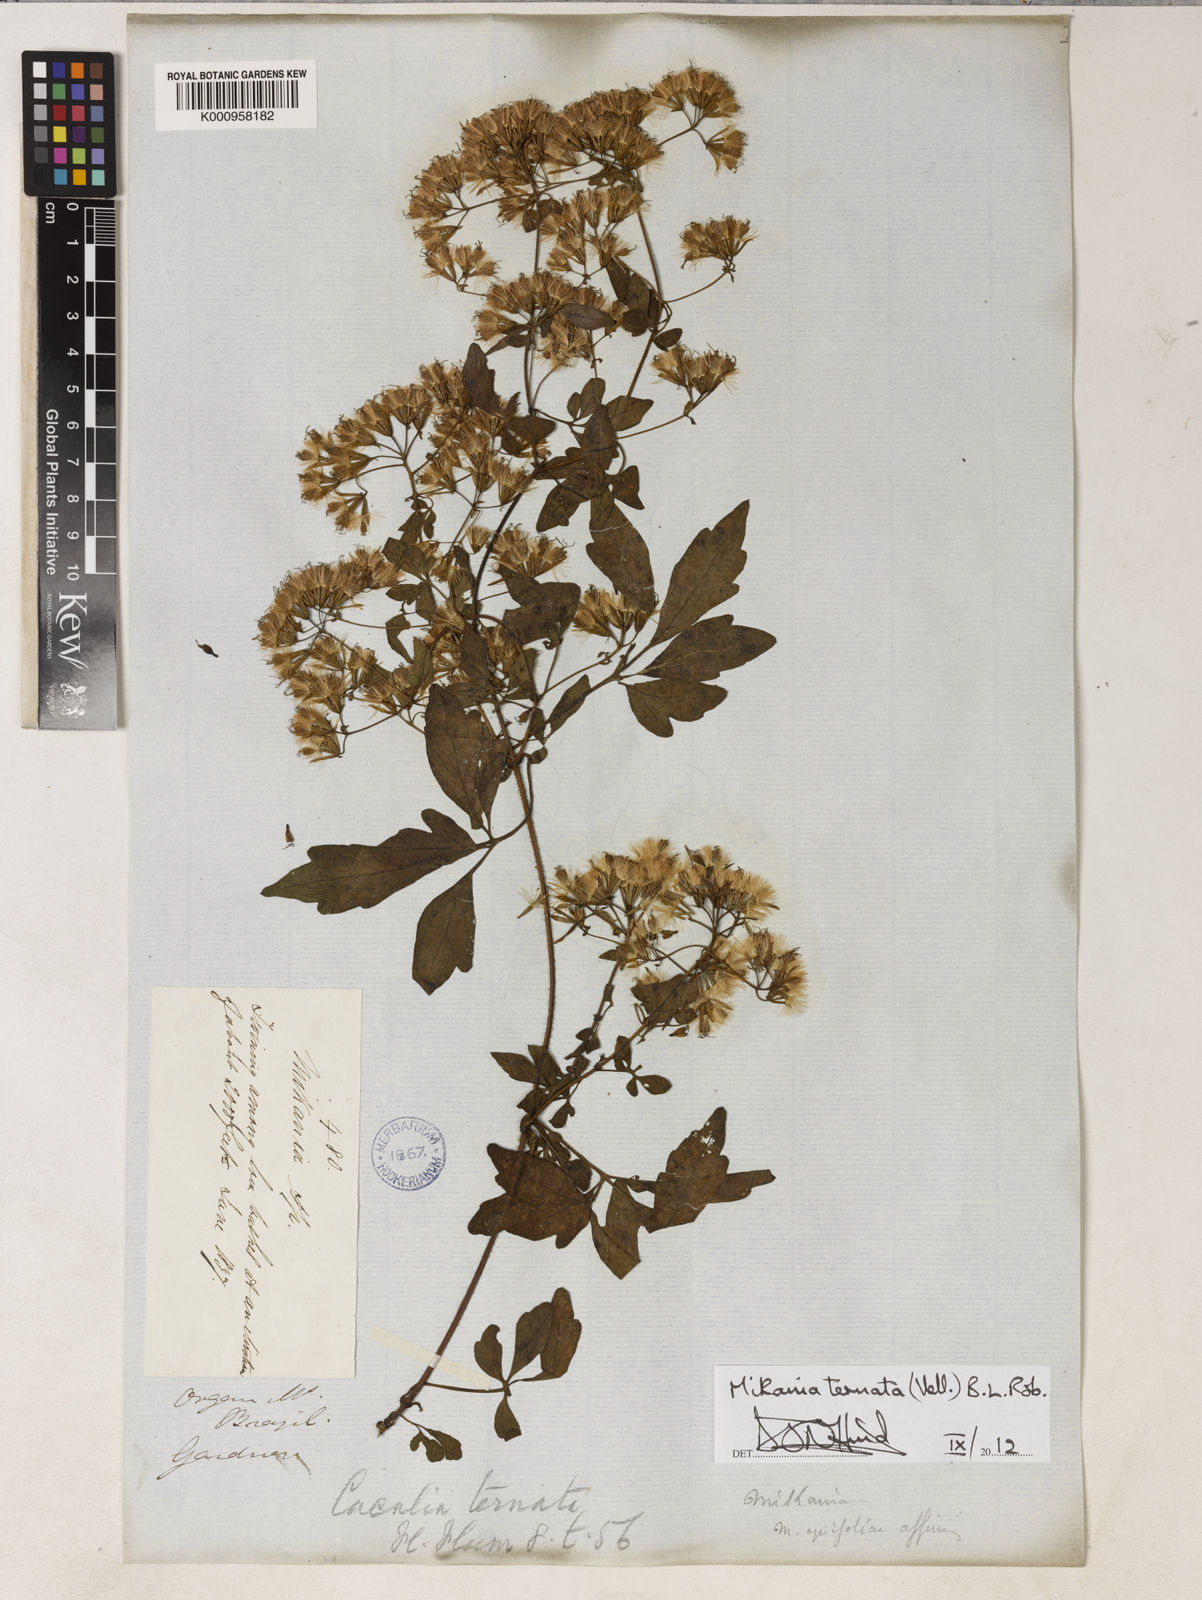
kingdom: Plantae
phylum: Tracheophyta
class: Magnoliopsida
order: Asterales
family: Asteraceae
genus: Mikania
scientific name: Mikania ternata
